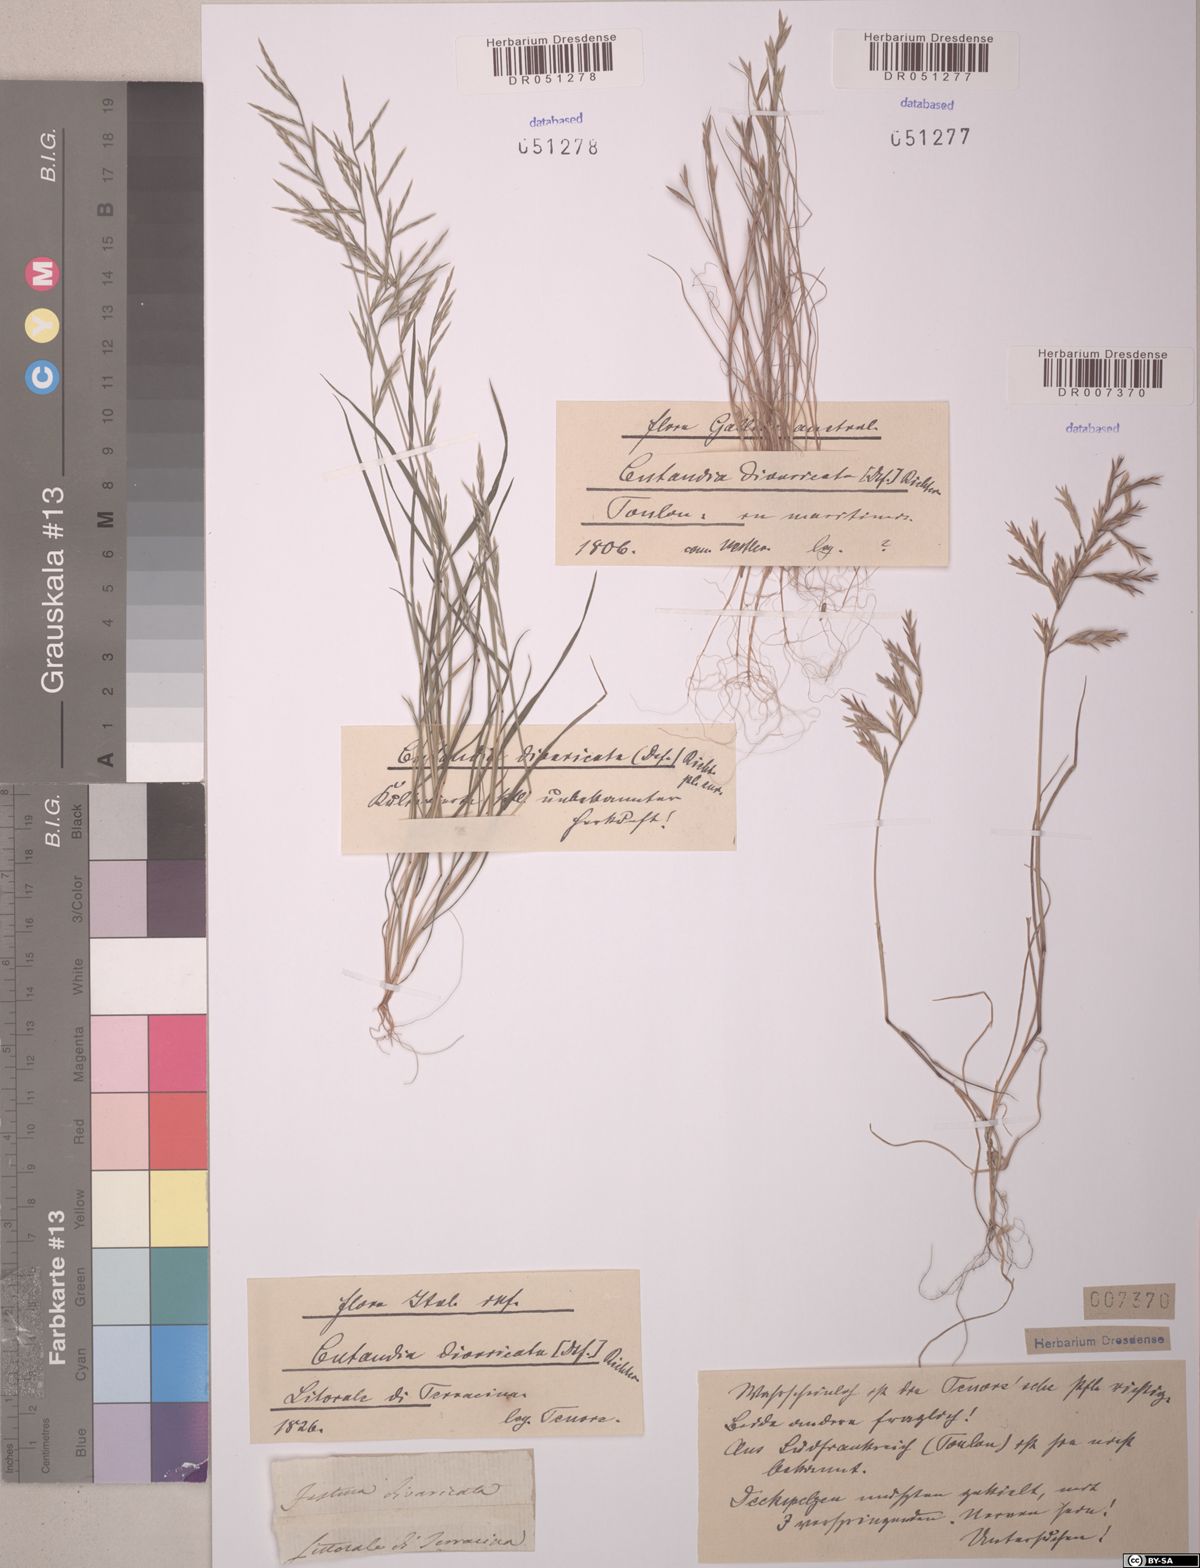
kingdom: Plantae
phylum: Tracheophyta
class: Liliopsida
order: Poales
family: Poaceae
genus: Cutandia
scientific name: Cutandia divaricata
